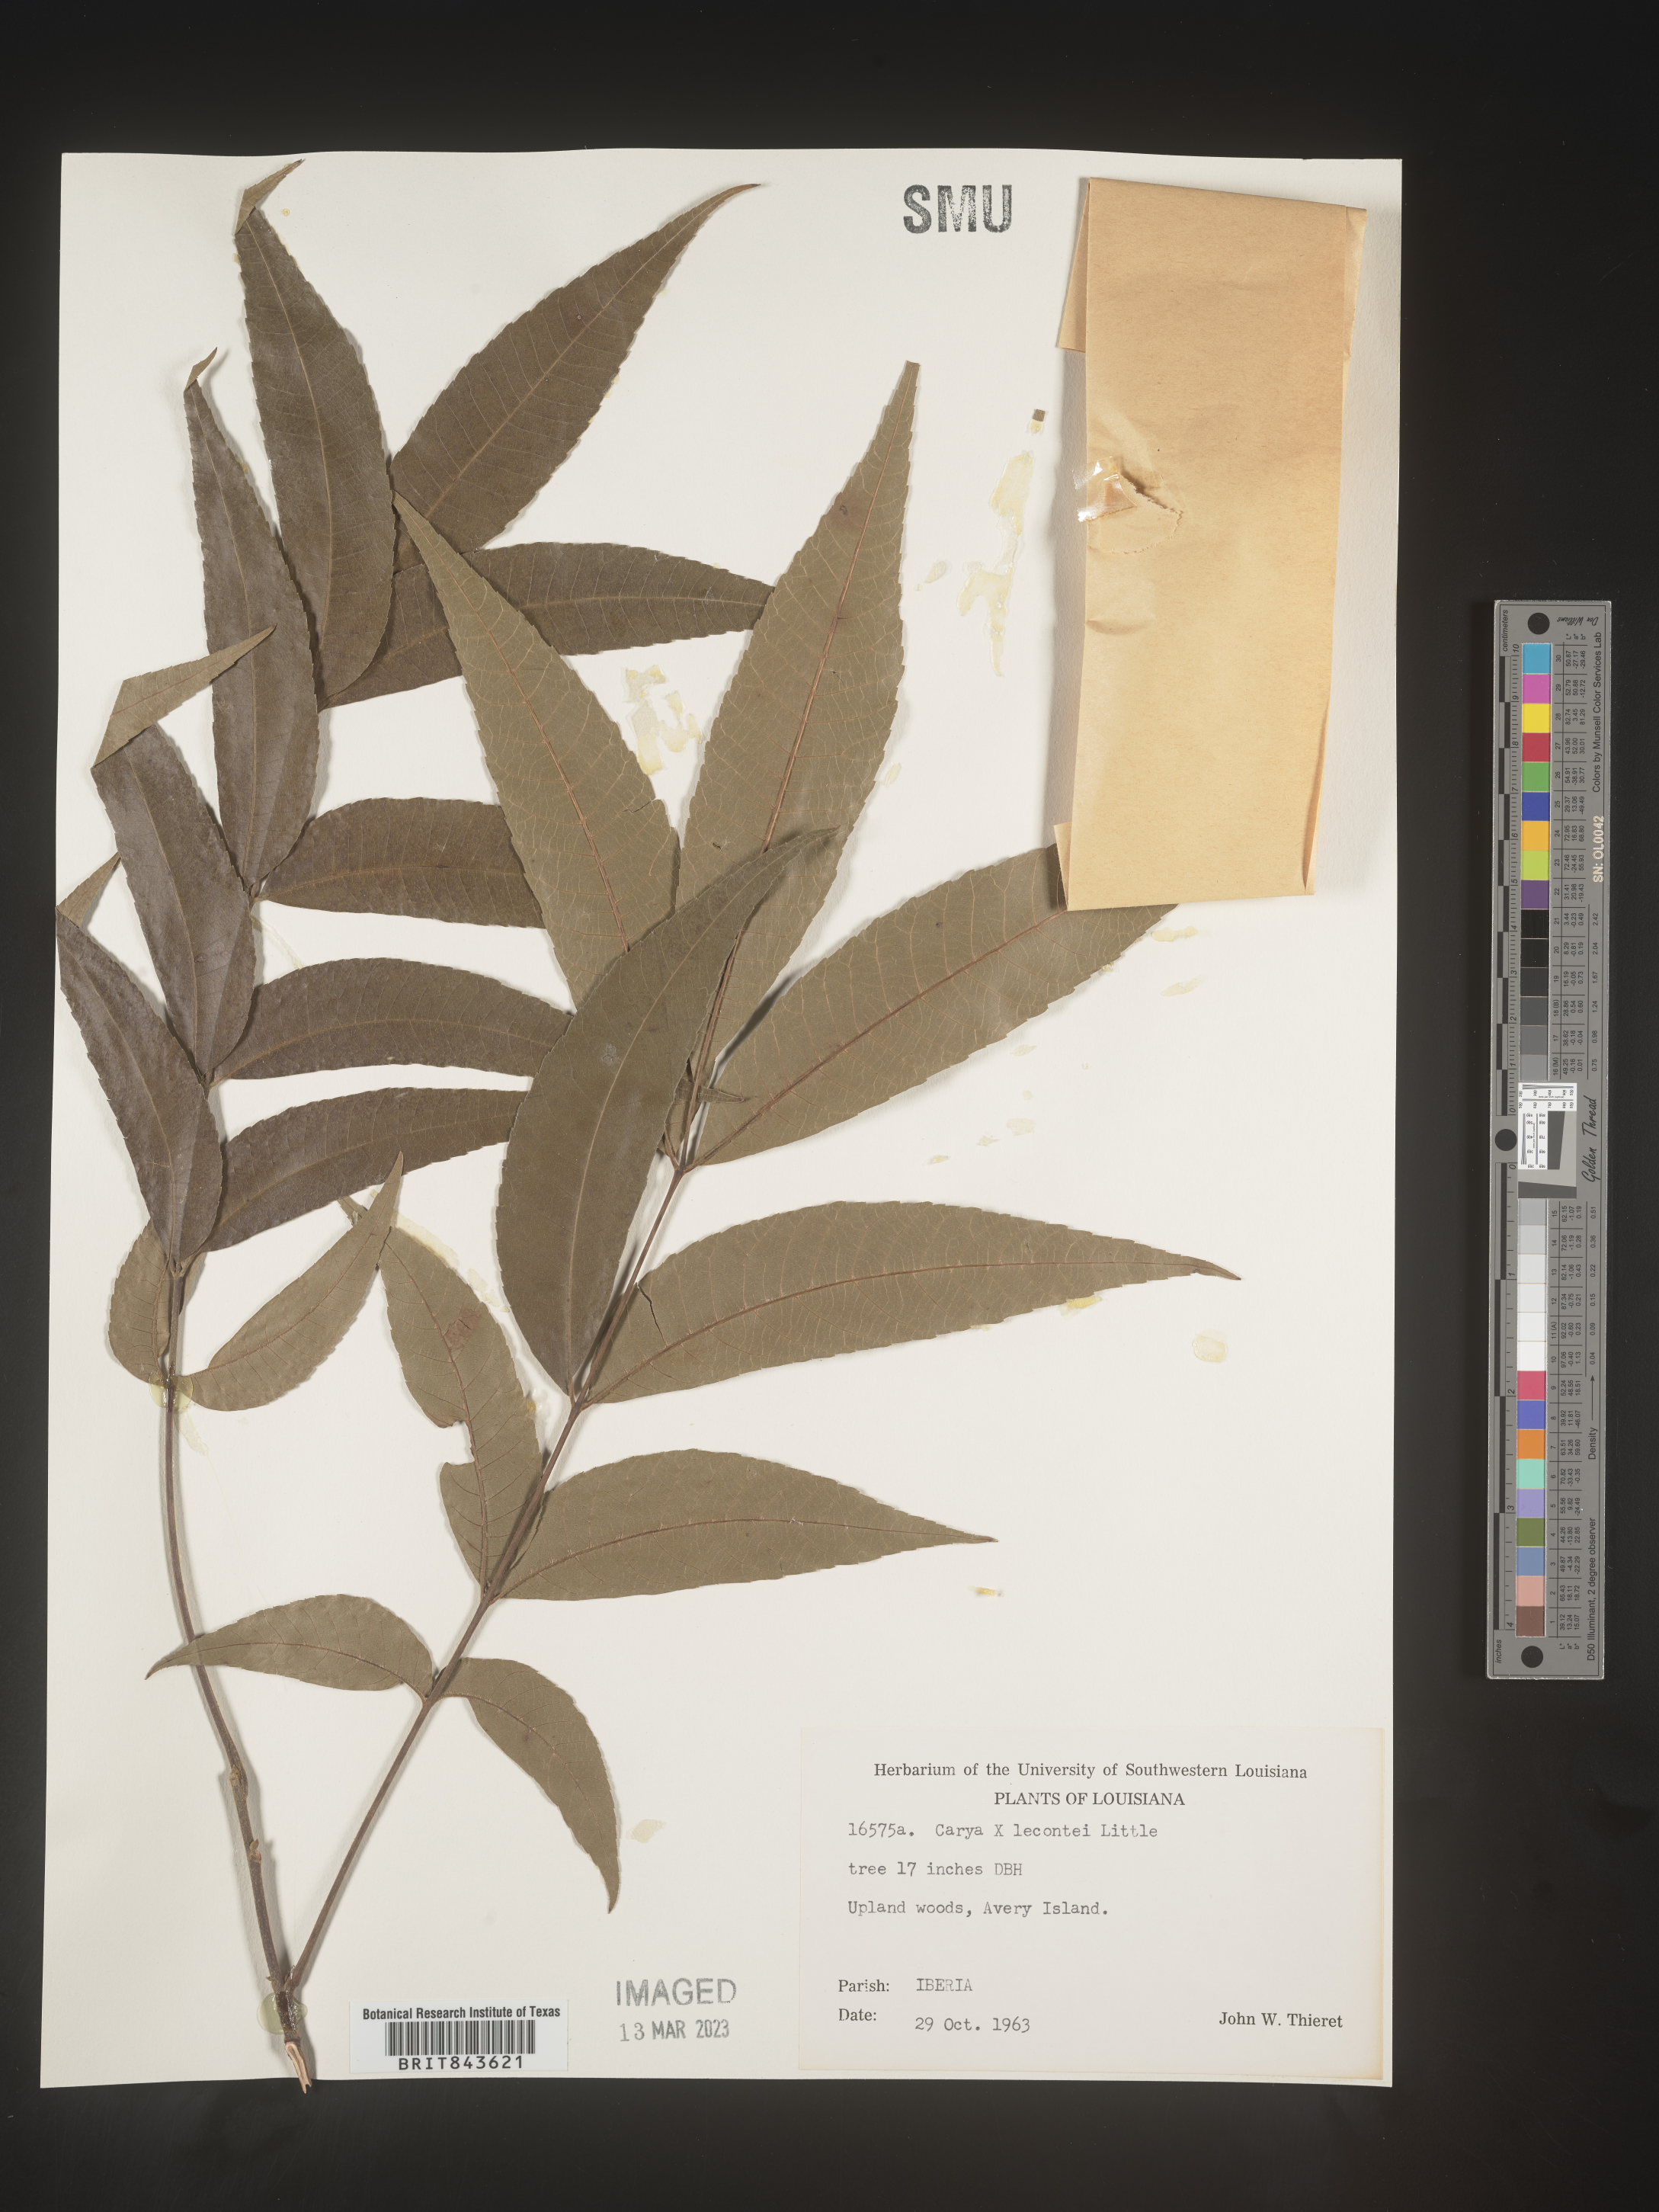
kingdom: Plantae
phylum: Tracheophyta
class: Magnoliopsida
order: Fagales
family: Juglandaceae
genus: Carya
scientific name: Carya
